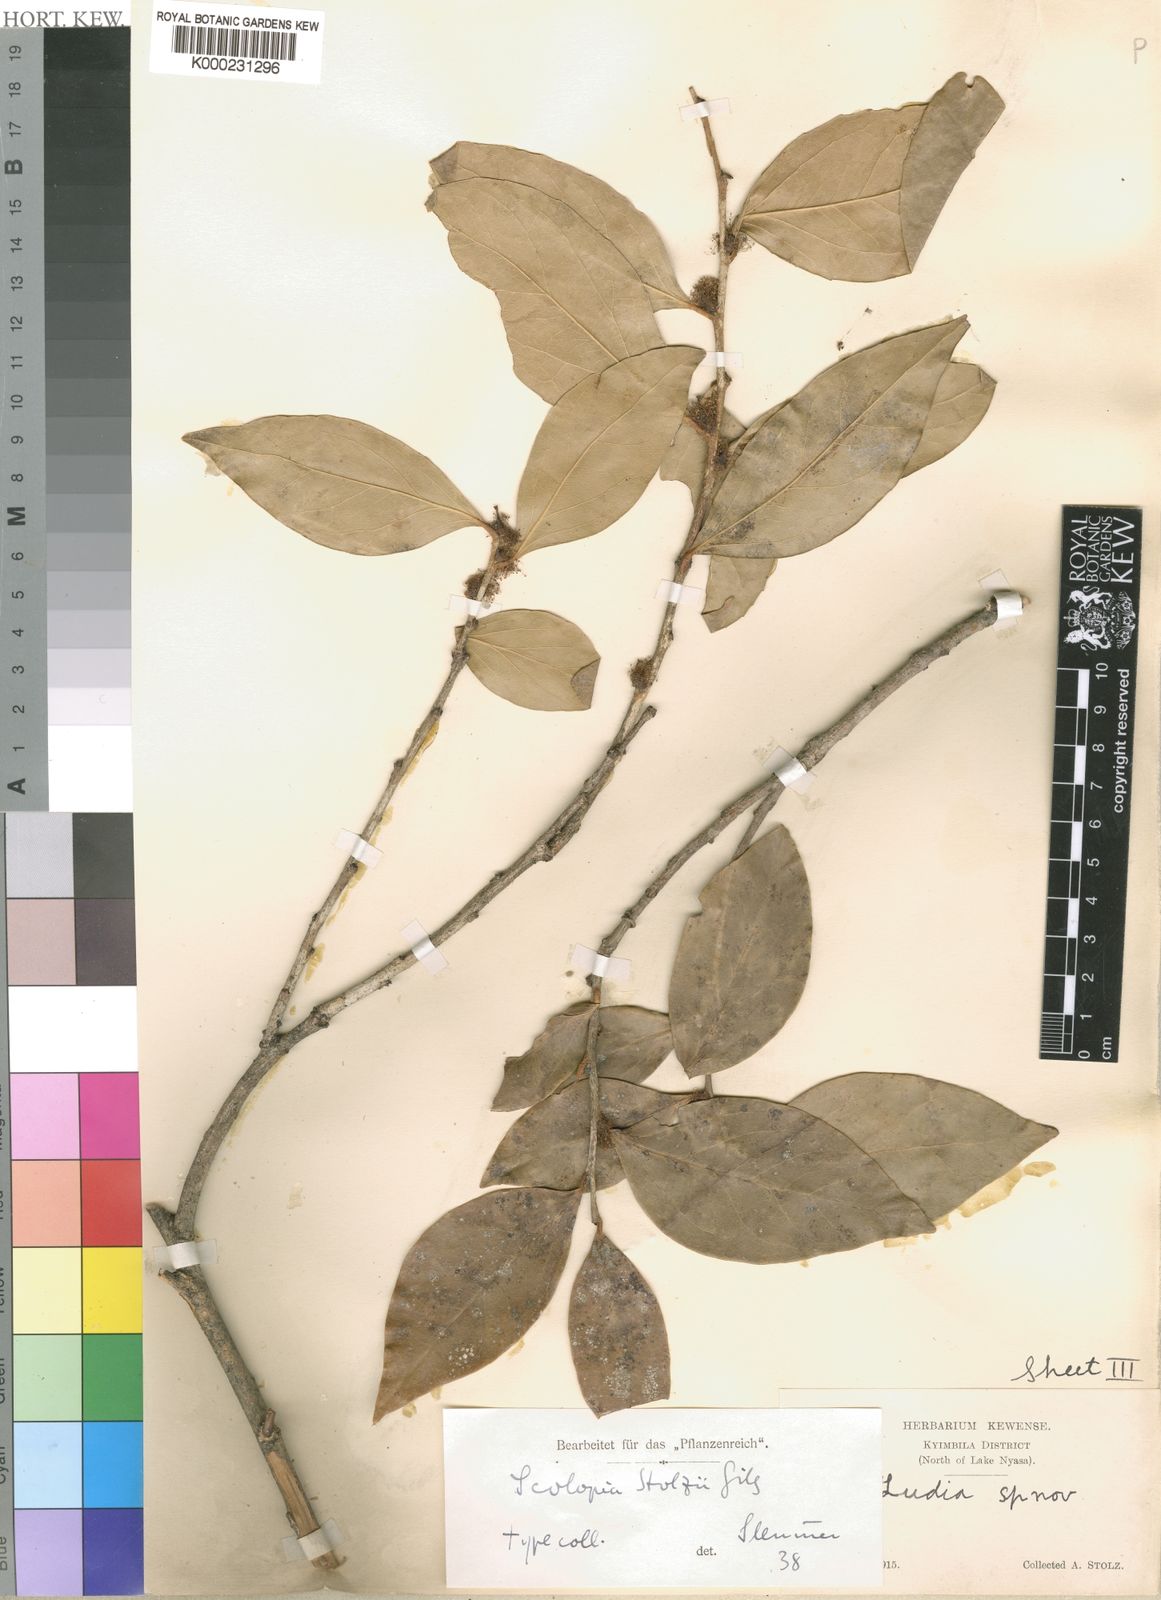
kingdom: Plantae
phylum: Tracheophyta
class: Magnoliopsida
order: Malpighiales
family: Salicaceae
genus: Scolopia
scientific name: Scolopia stolzii
